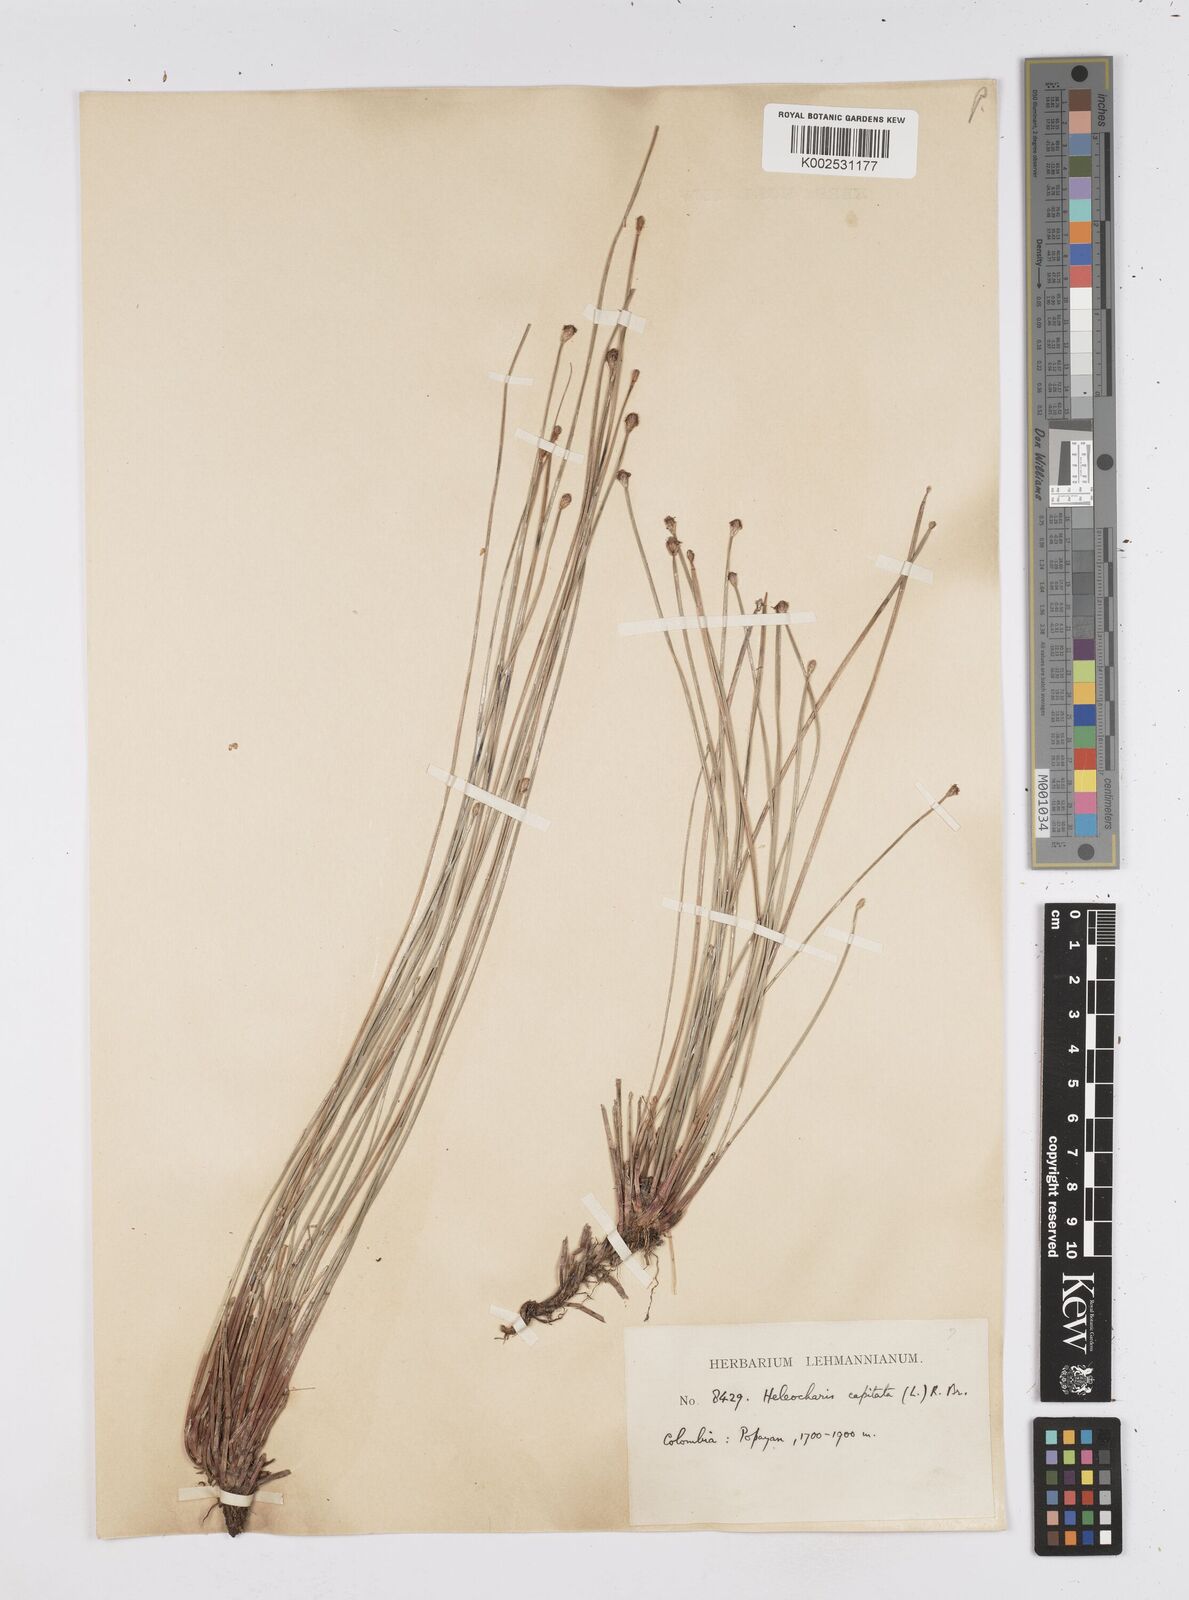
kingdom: Plantae
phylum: Tracheophyta
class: Liliopsida
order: Poales
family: Cyperaceae
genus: Eleocharis
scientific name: Eleocharis geniculata
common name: Canada spikesedge
